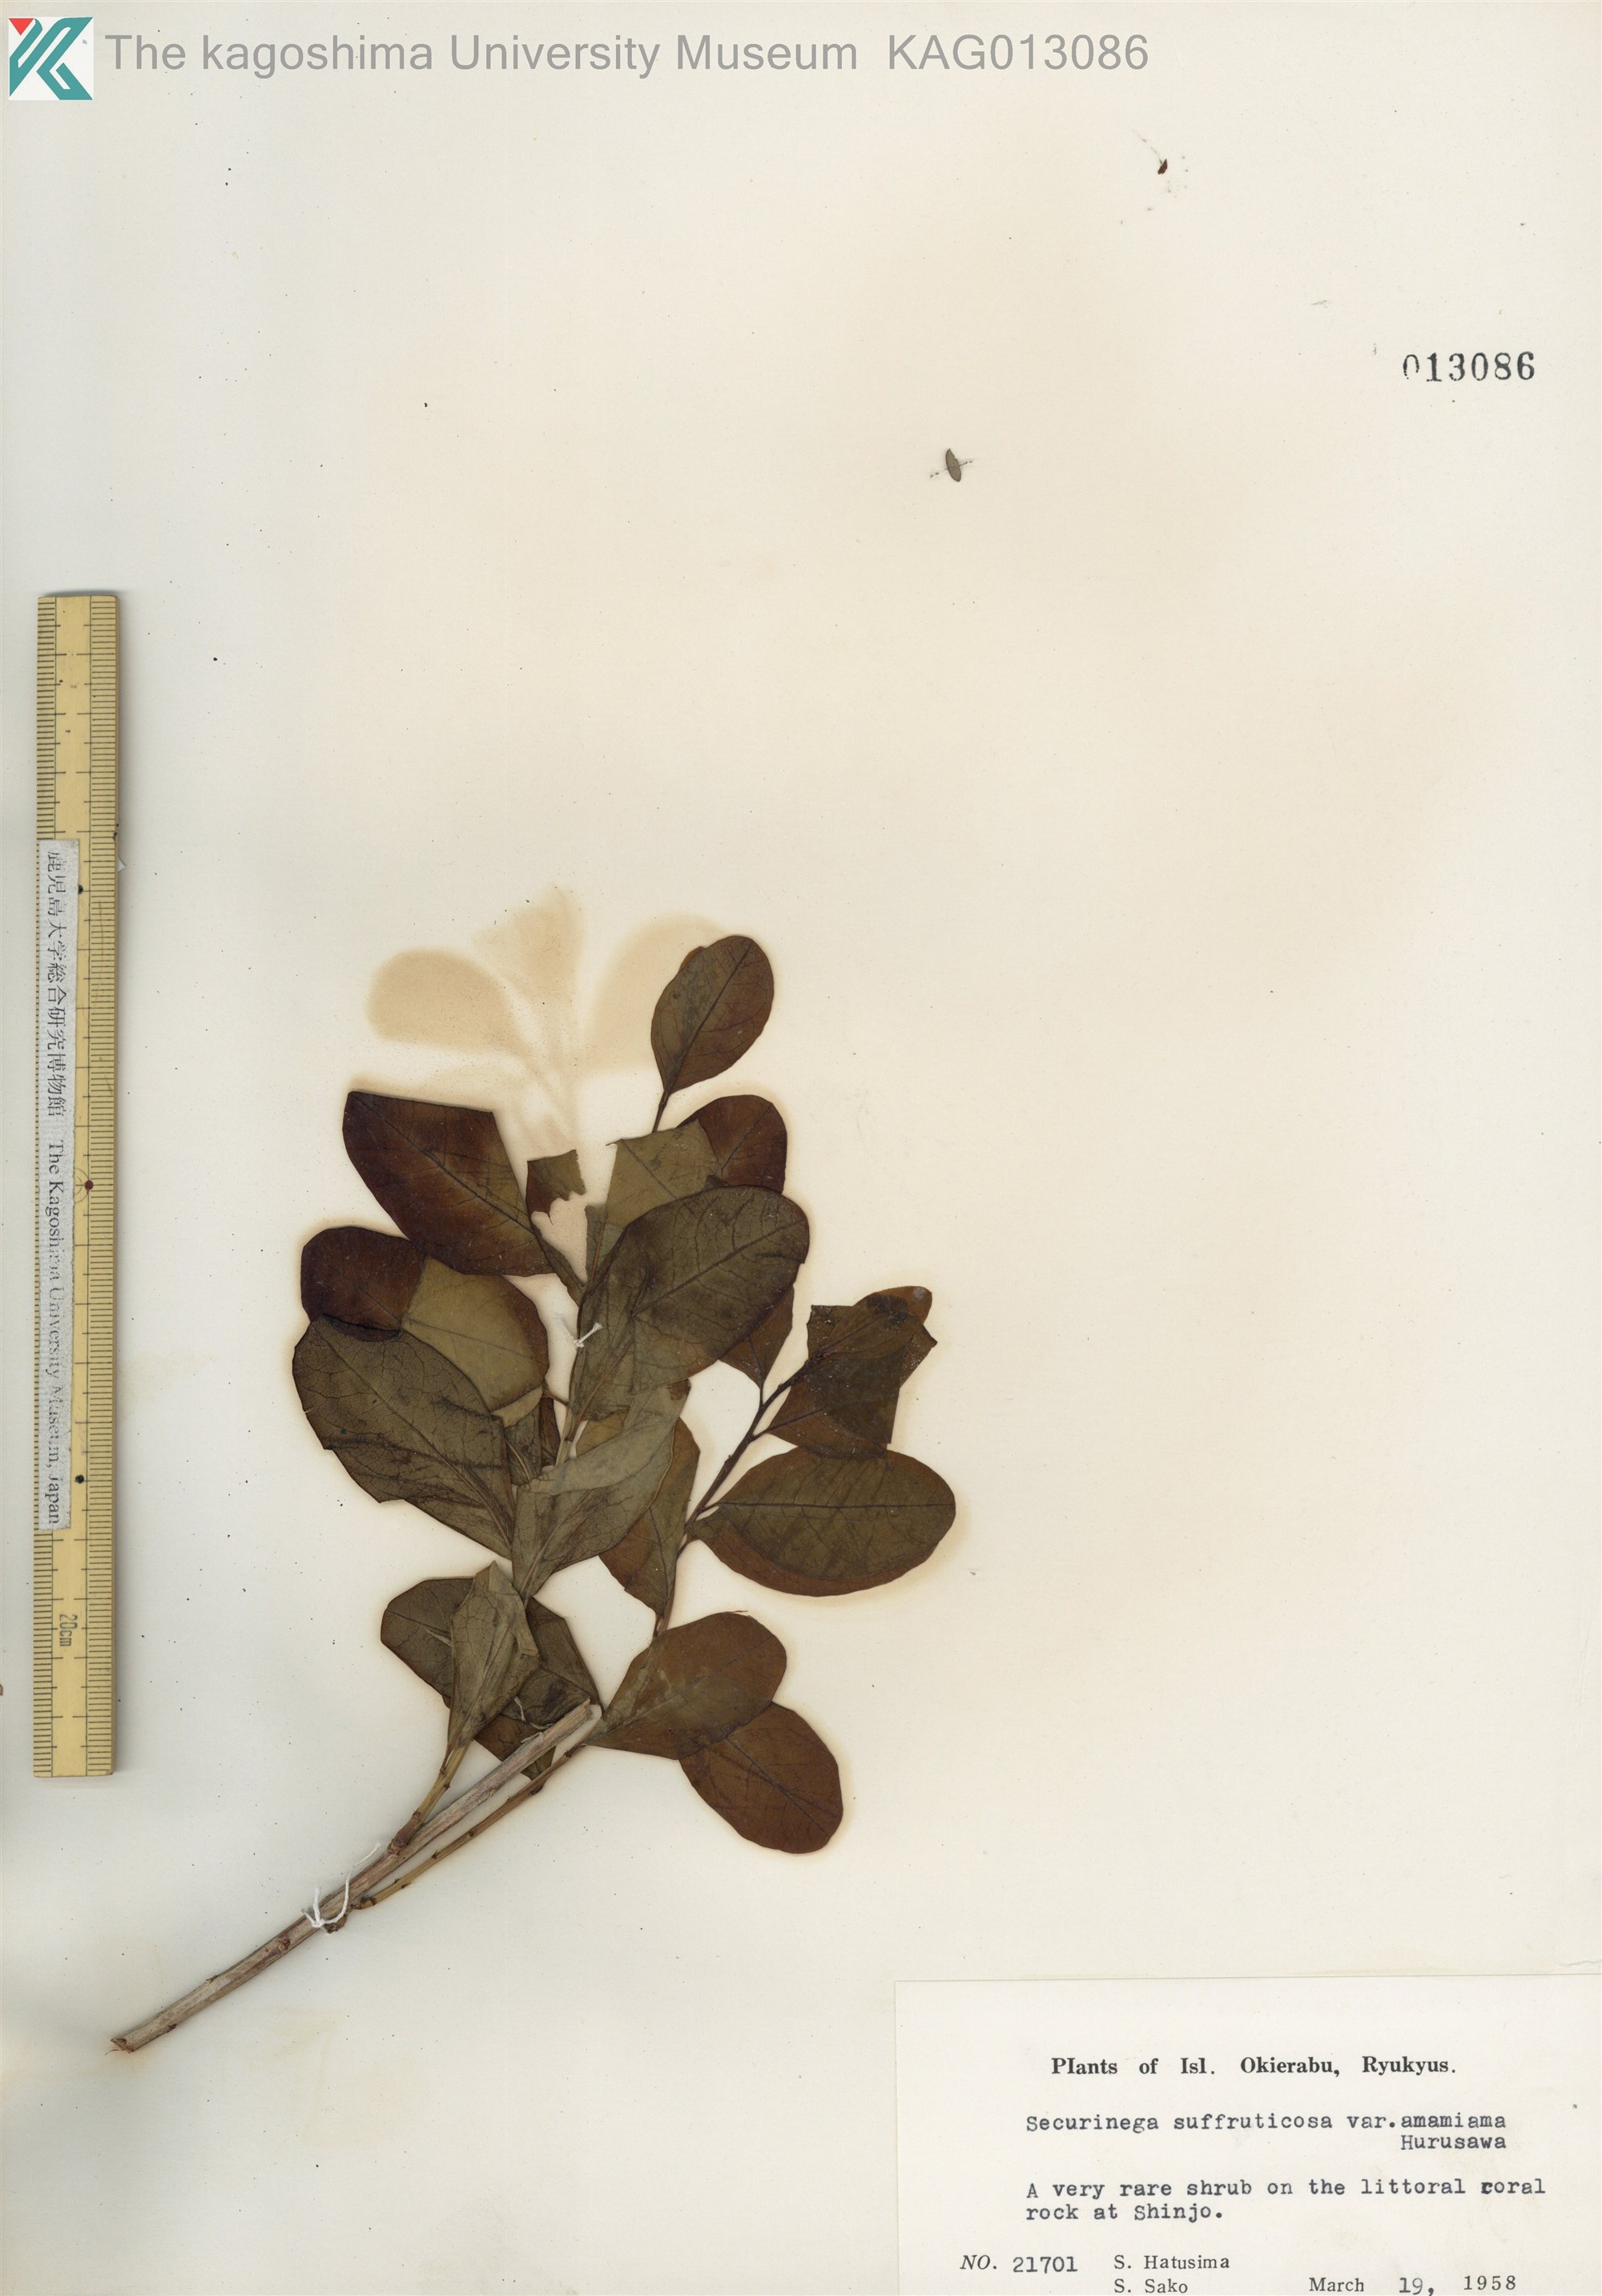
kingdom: Plantae
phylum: Tracheophyta
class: Magnoliopsida
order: Malpighiales
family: Phyllanthaceae
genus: Flueggea
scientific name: Flueggea suffruticosa
